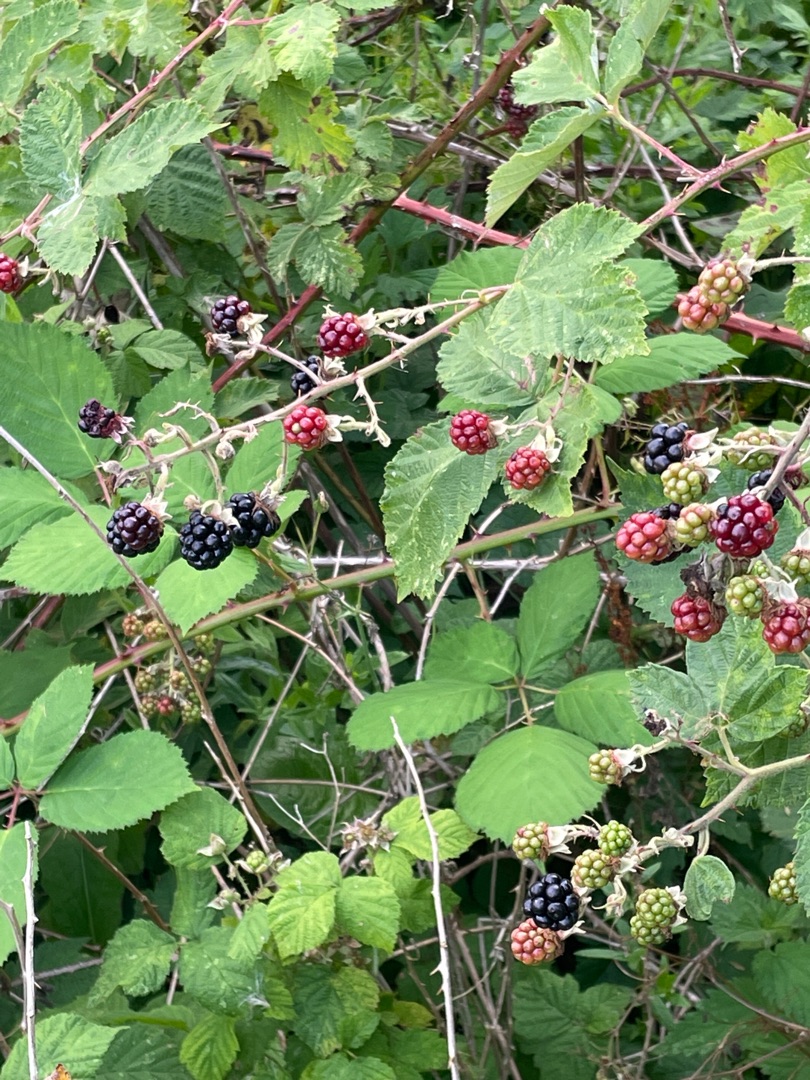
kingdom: Plantae
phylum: Tracheophyta
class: Magnoliopsida
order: Rosales
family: Rosaceae
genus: Rubus
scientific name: Rubus armeniacus
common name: Armensk brombær
